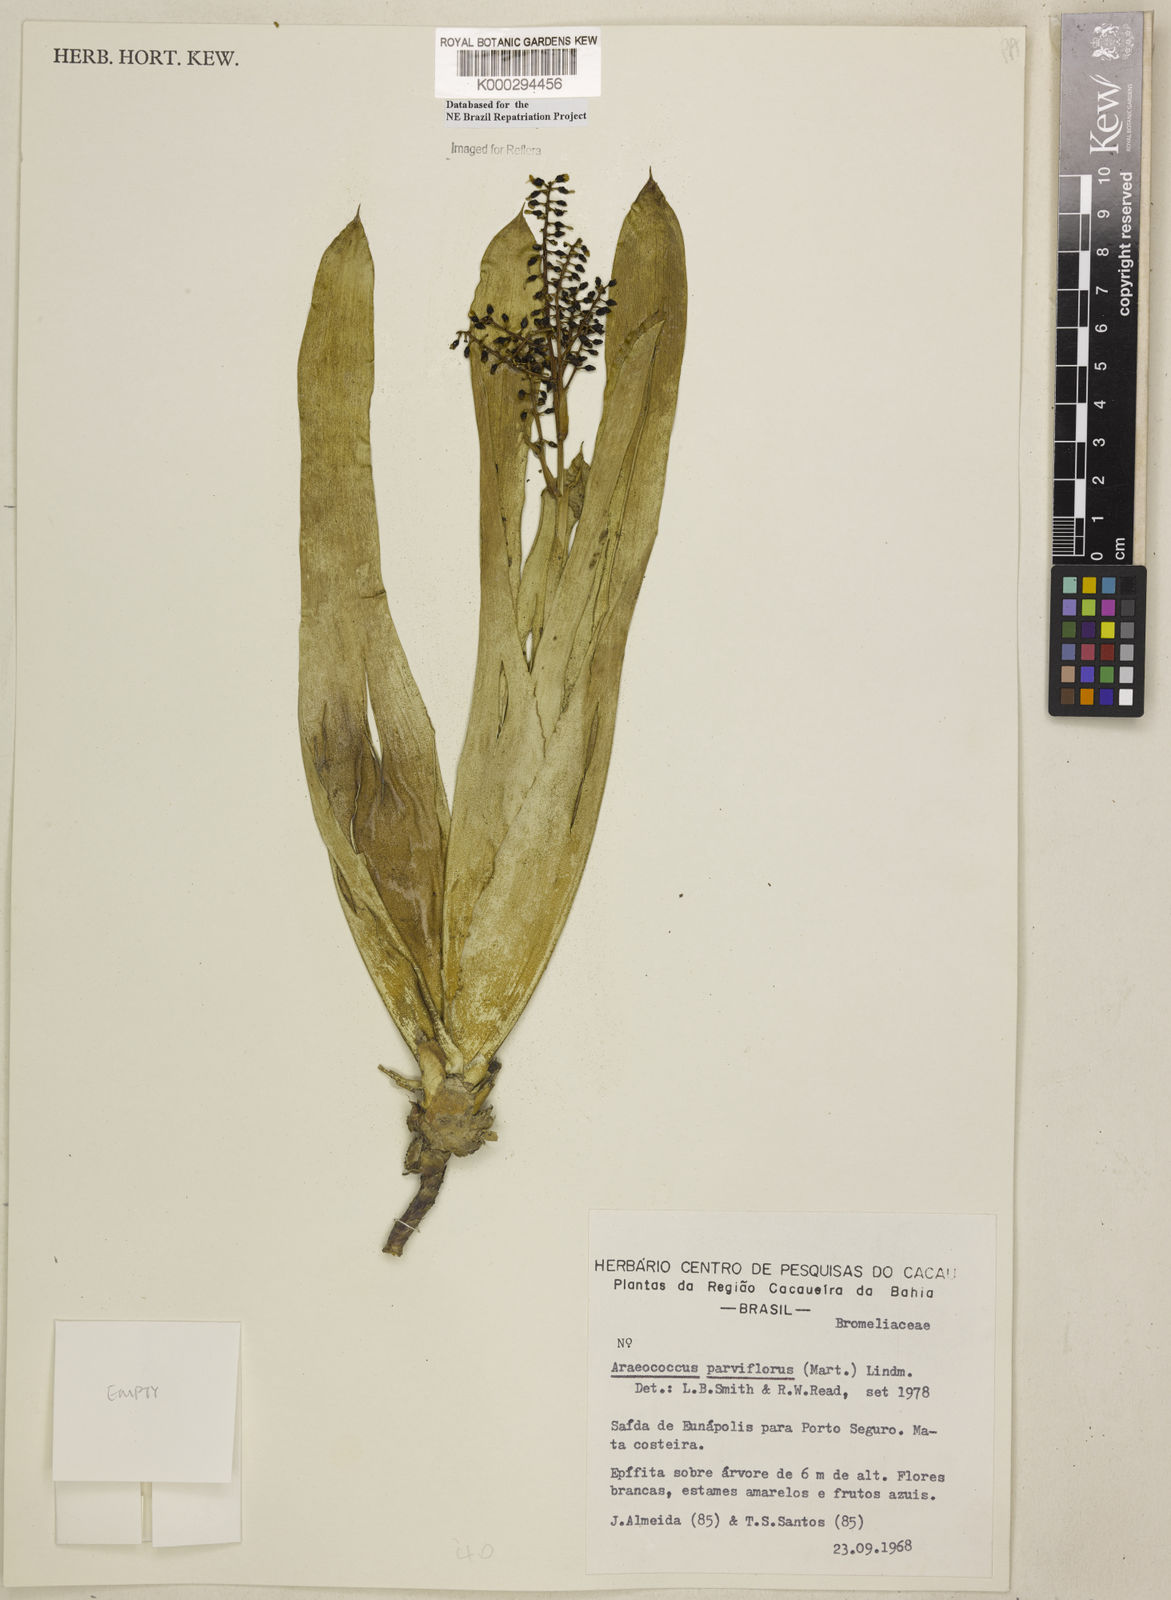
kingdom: Plantae
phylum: Tracheophyta
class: Liliopsida
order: Poales
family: Bromeliaceae
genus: Pseudaraeococcus
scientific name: Pseudaraeococcus parviflorus
